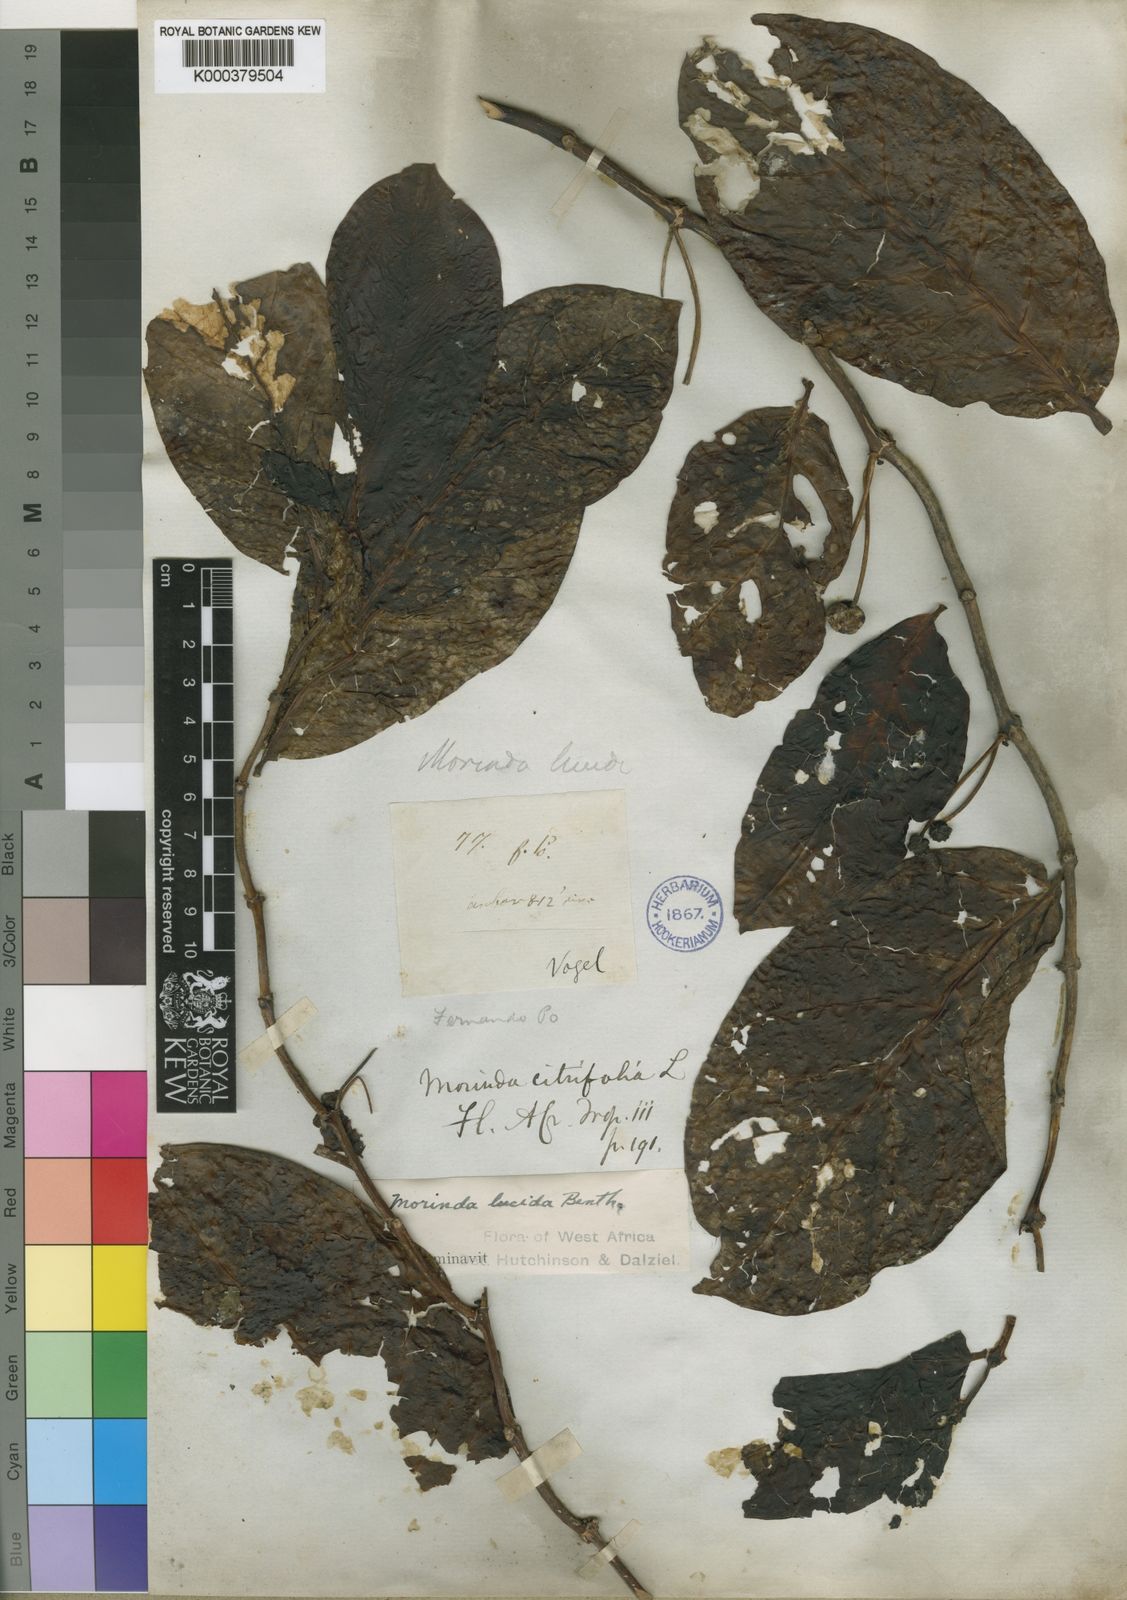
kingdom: Plantae
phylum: Tracheophyta
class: Magnoliopsida
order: Gentianales
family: Rubiaceae
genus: Morinda
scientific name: Morinda lucida
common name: Brimstonetree
